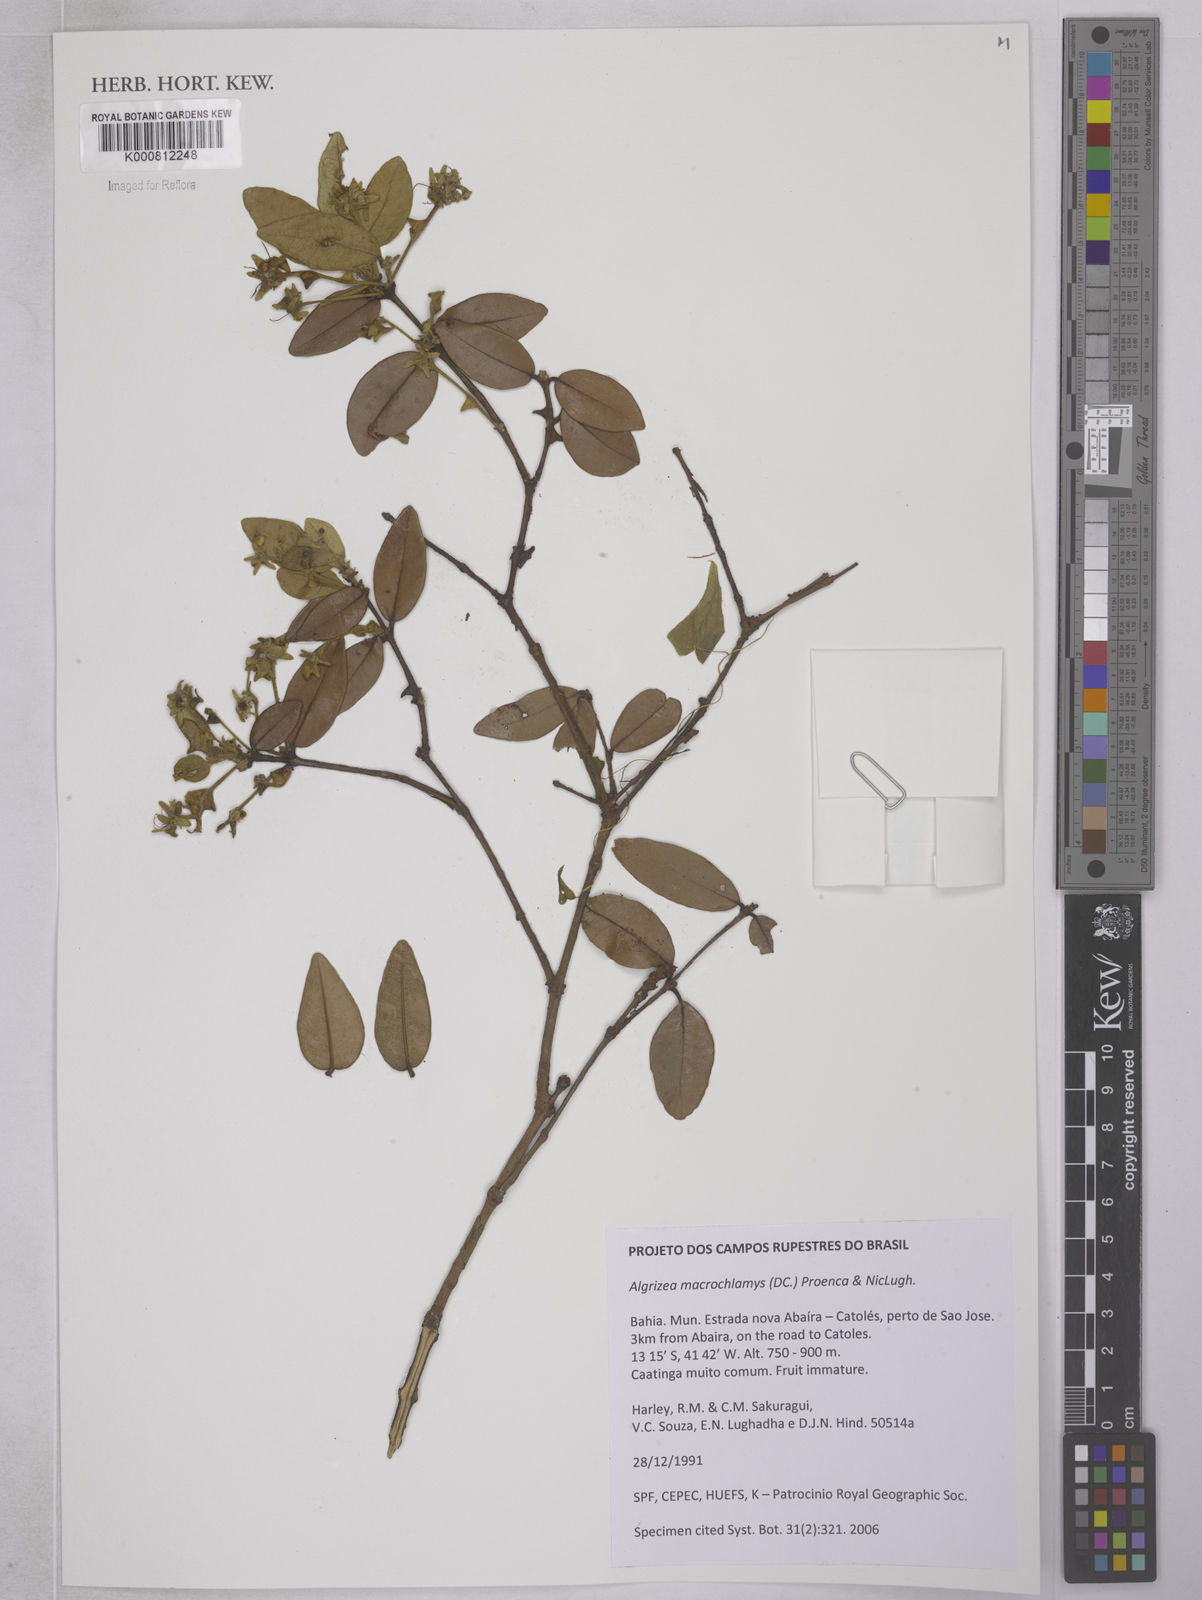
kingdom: Plantae
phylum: Tracheophyta
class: Magnoliopsida
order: Myrtales
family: Myrtaceae
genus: Algrizea
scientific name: Algrizea macrochlamys
